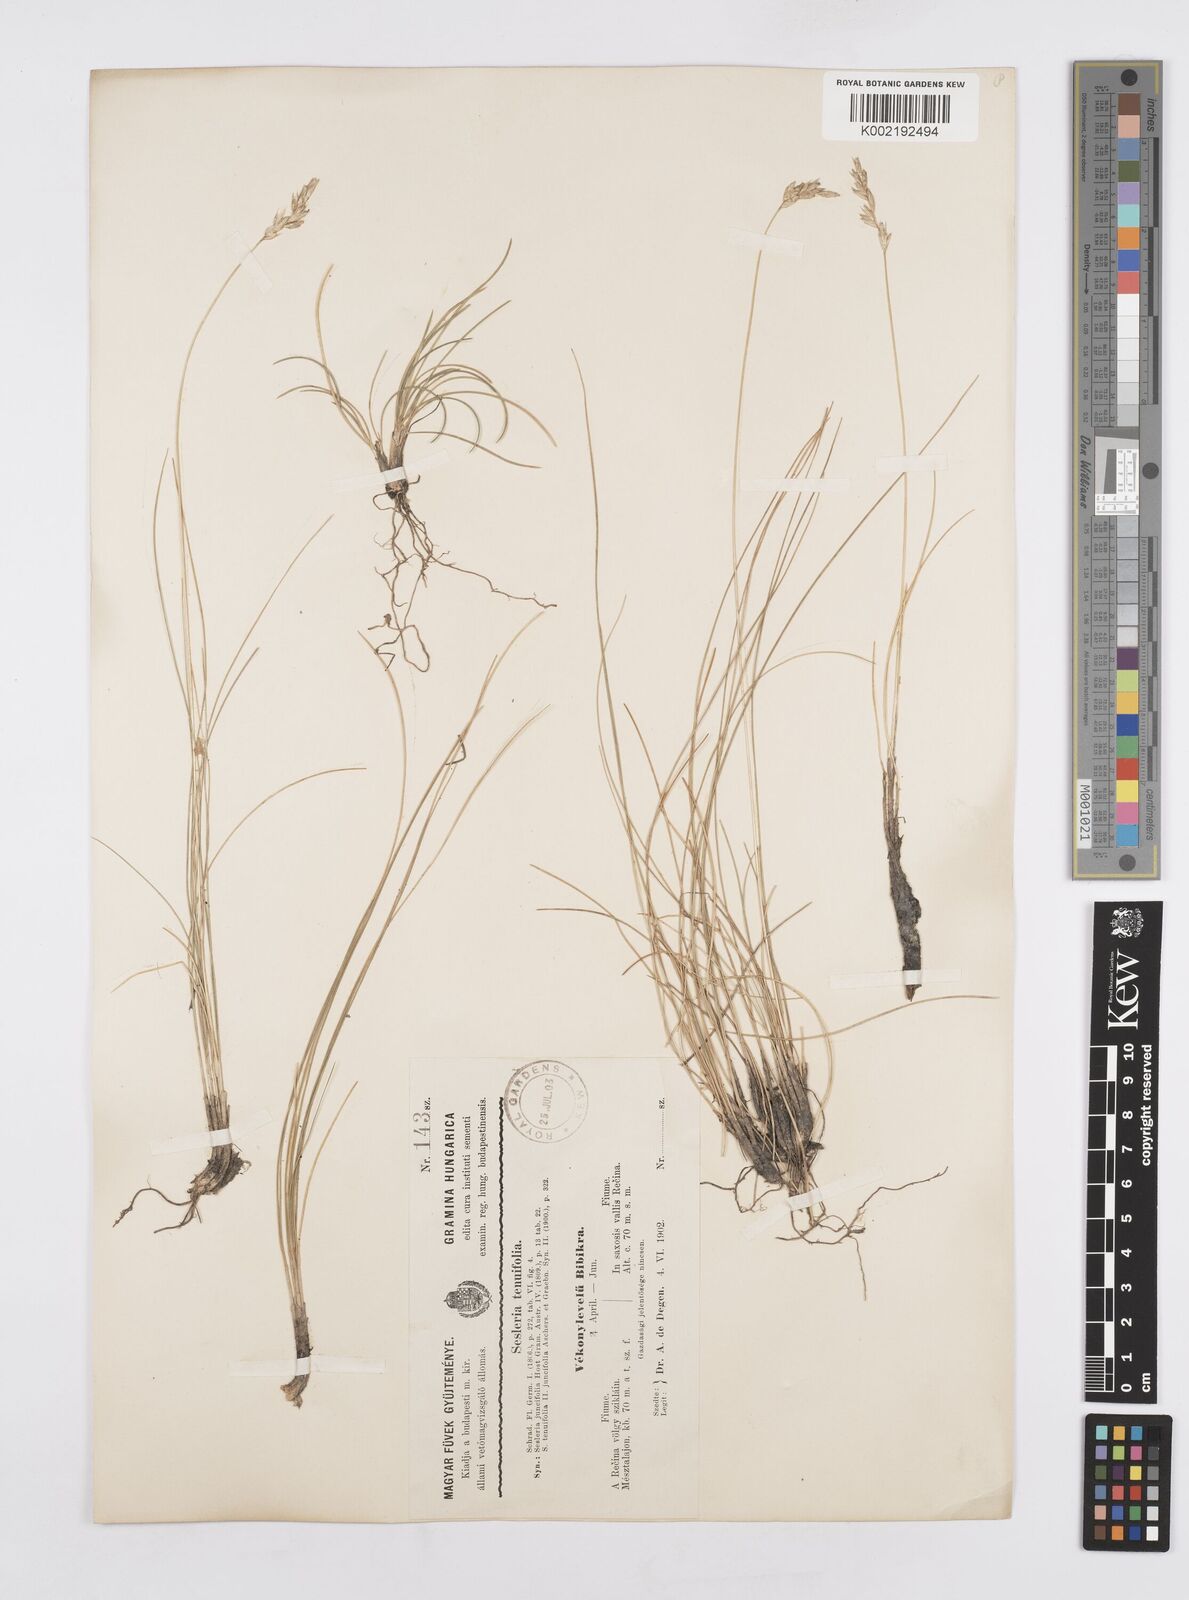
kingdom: Plantae
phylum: Tracheophyta
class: Liliopsida
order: Poales
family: Poaceae
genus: Sesleria
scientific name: Sesleria juncifolia
